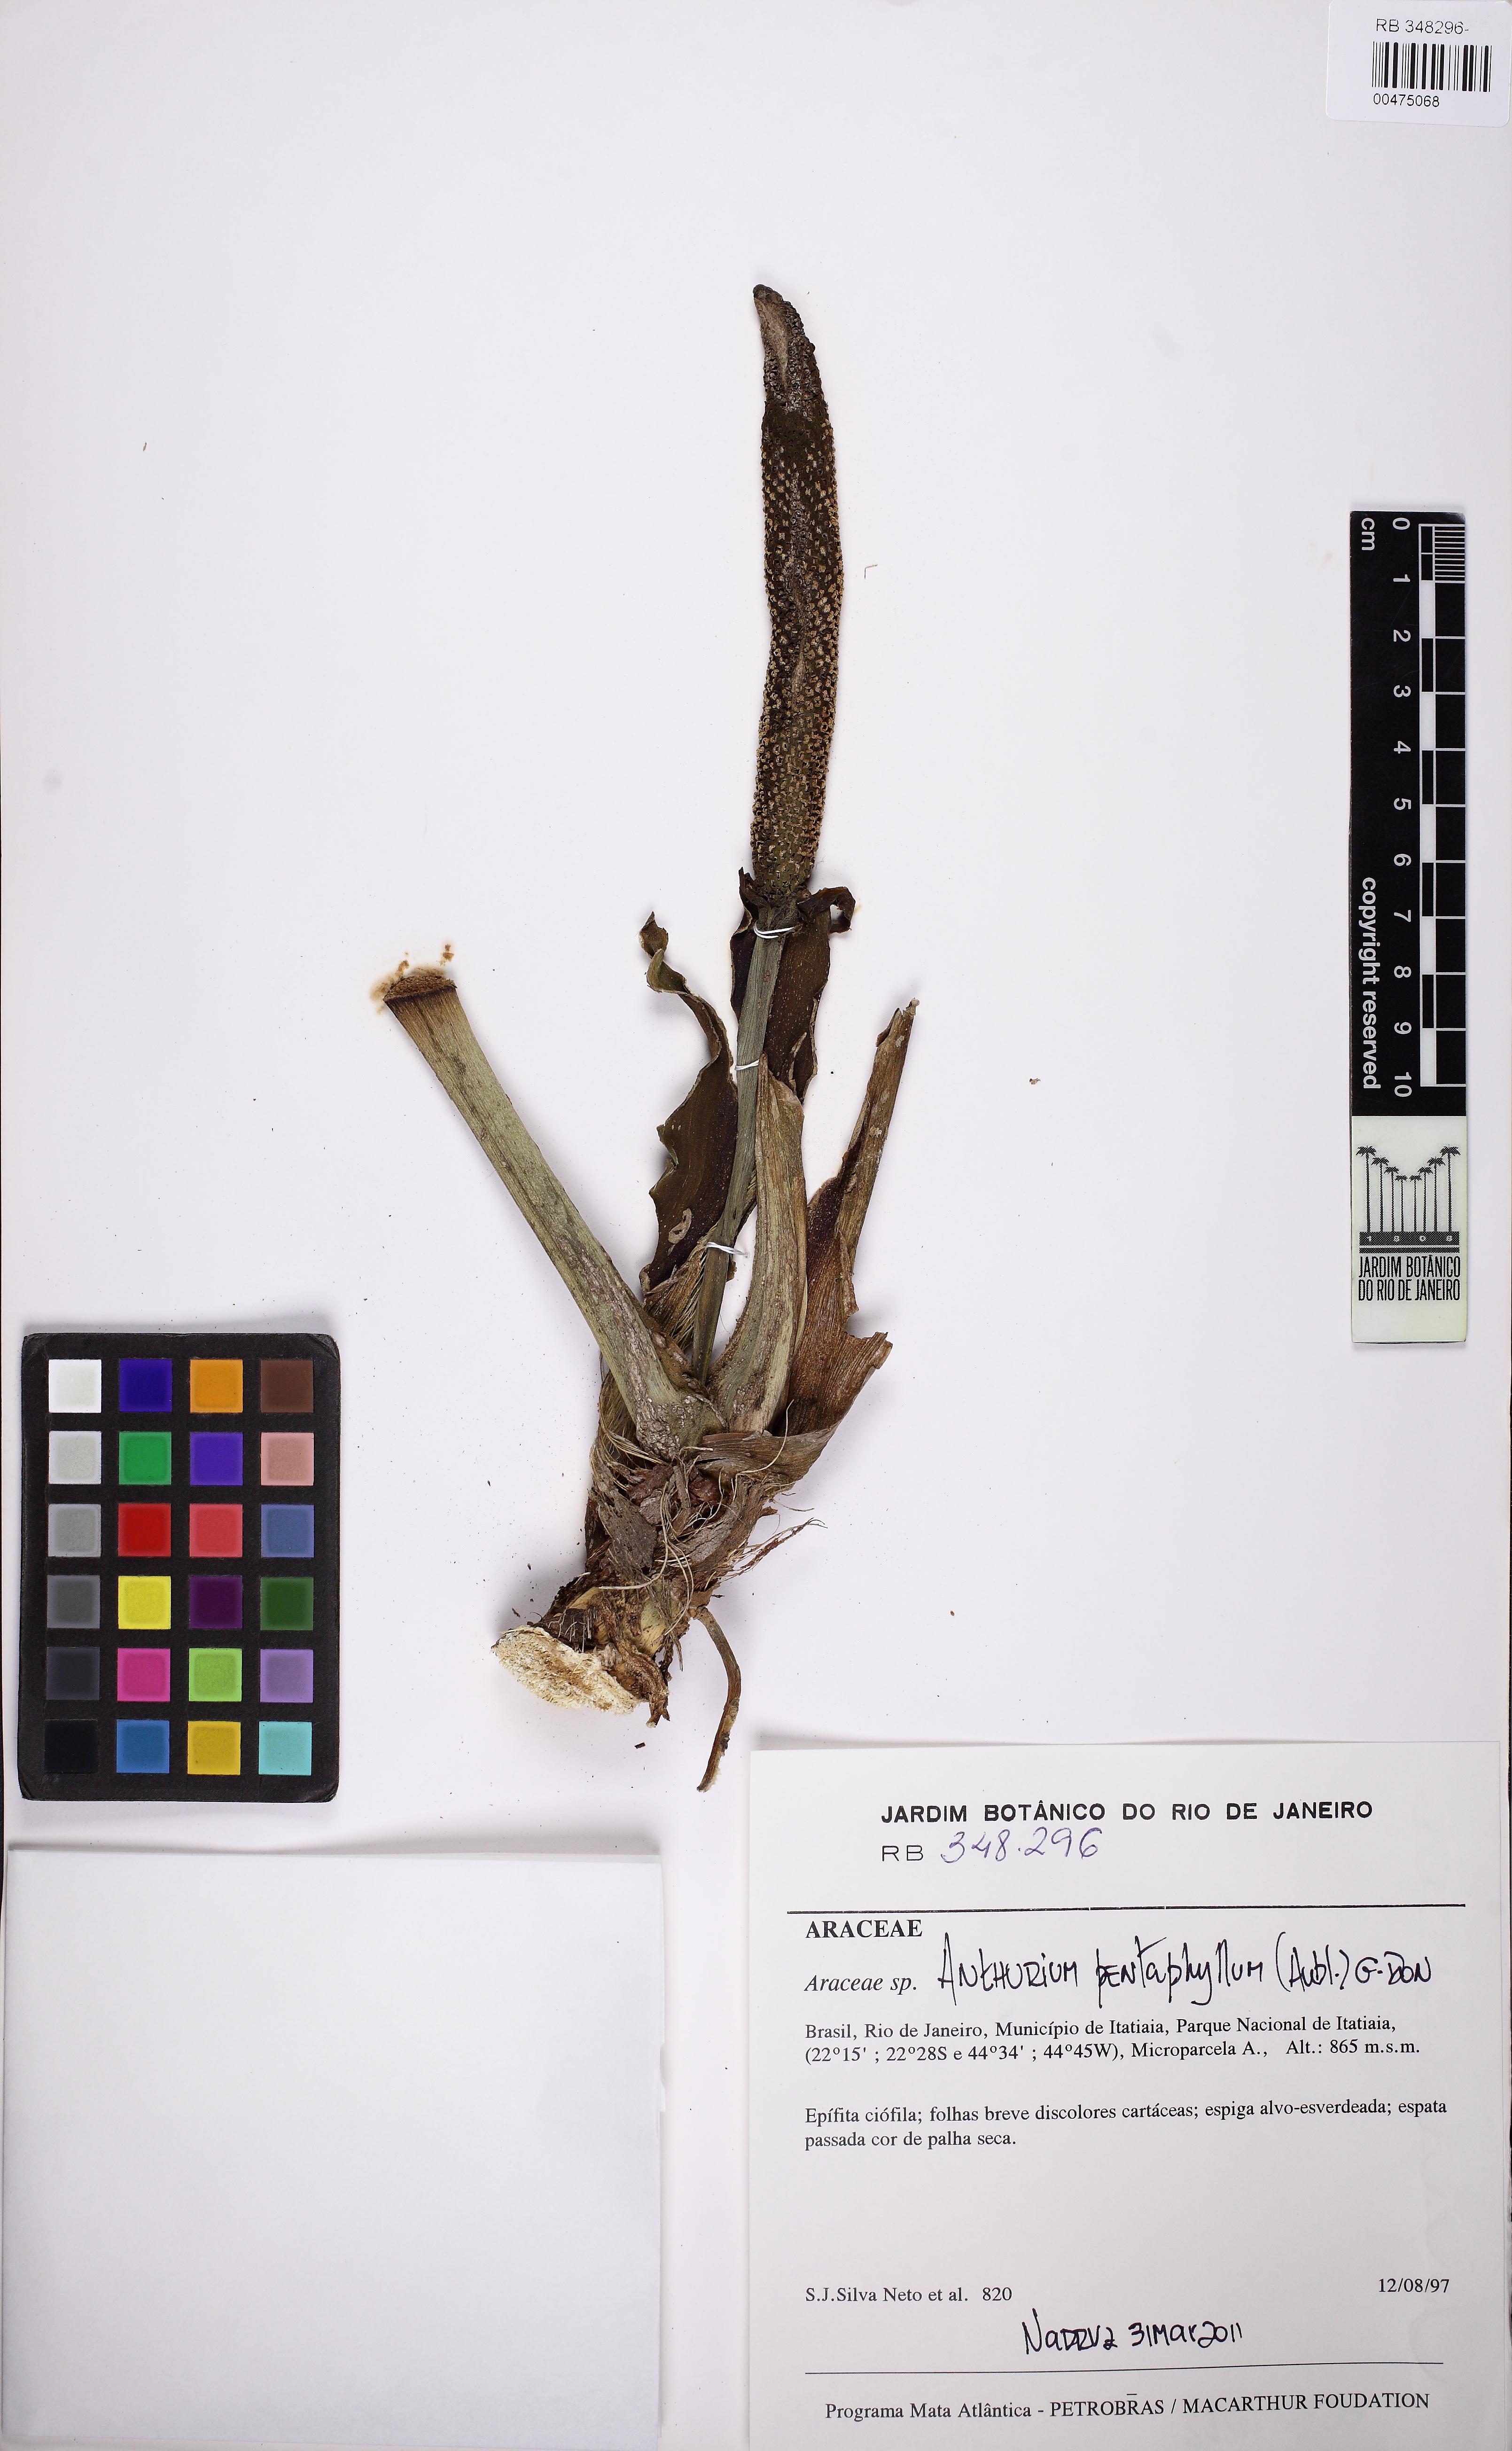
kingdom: Plantae
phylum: Tracheophyta
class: Liliopsida
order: Alismatales
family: Araceae
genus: Anthurium
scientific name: Anthurium pentaphyllum
